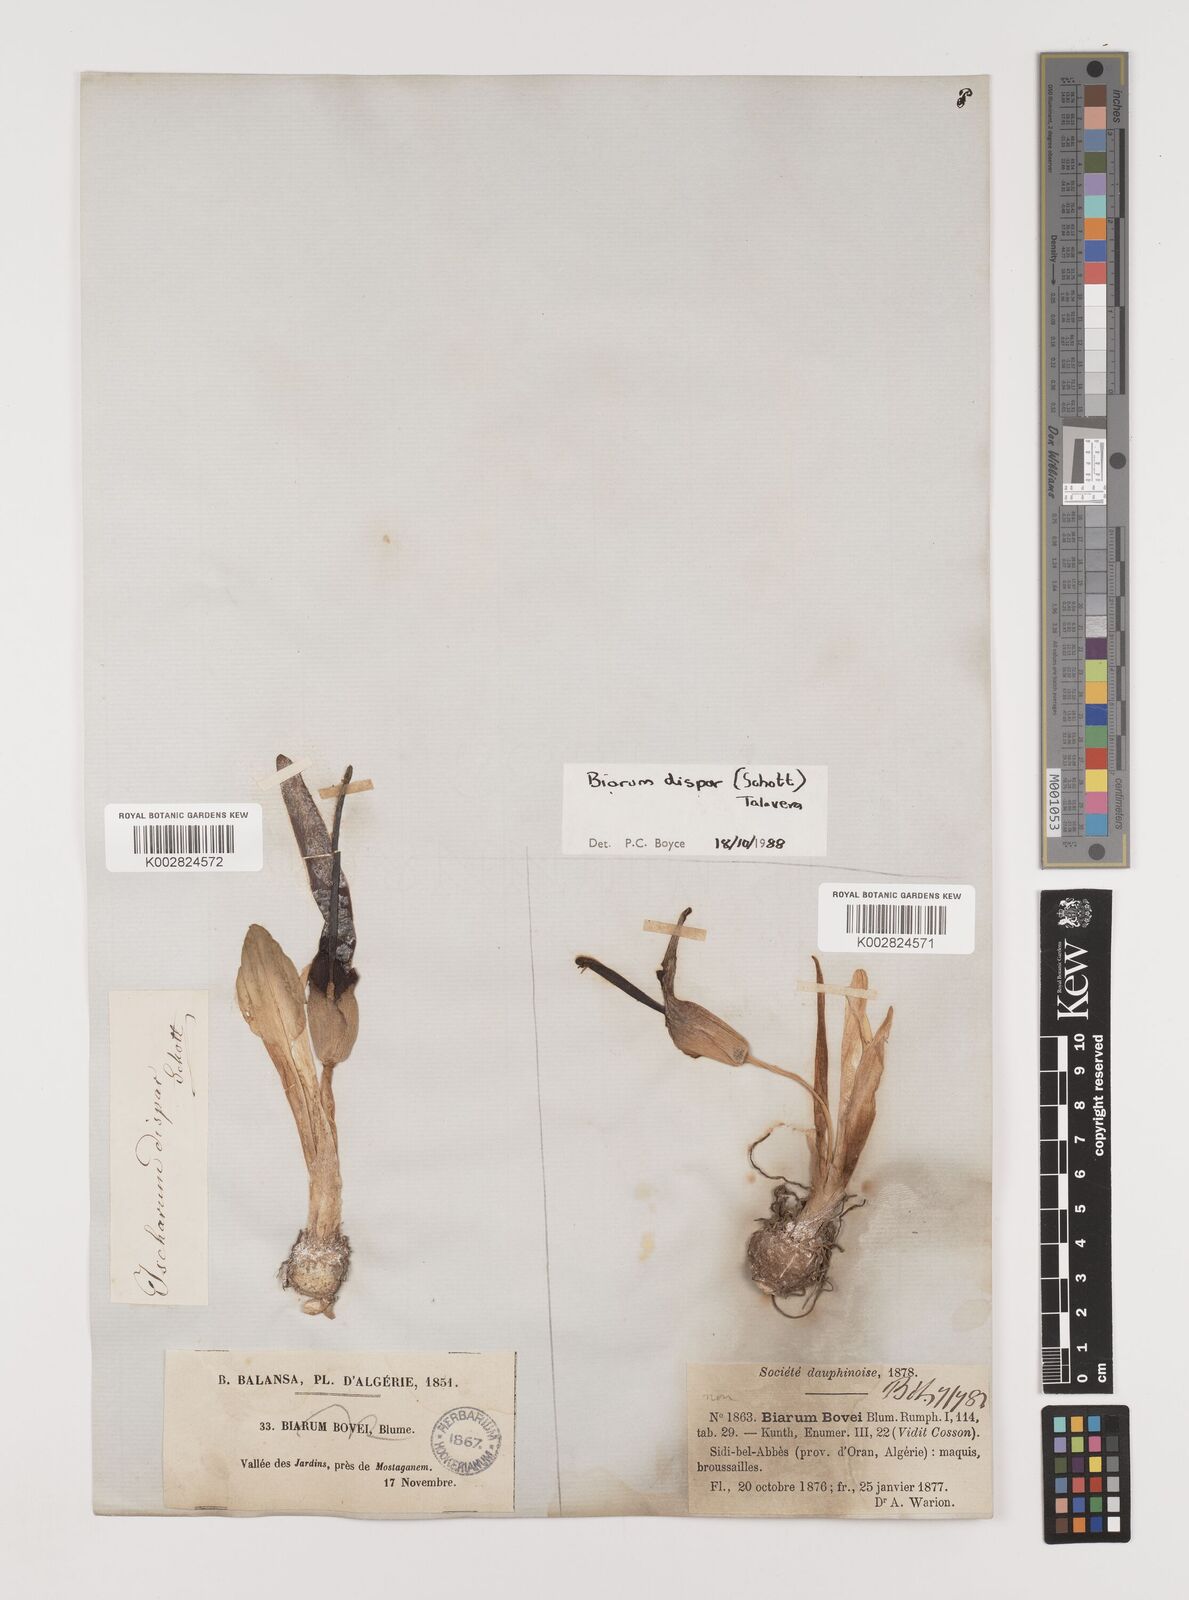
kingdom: Plantae
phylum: Tracheophyta
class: Liliopsida
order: Alismatales
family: Araceae
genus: Biarum
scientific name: Biarum dispar
